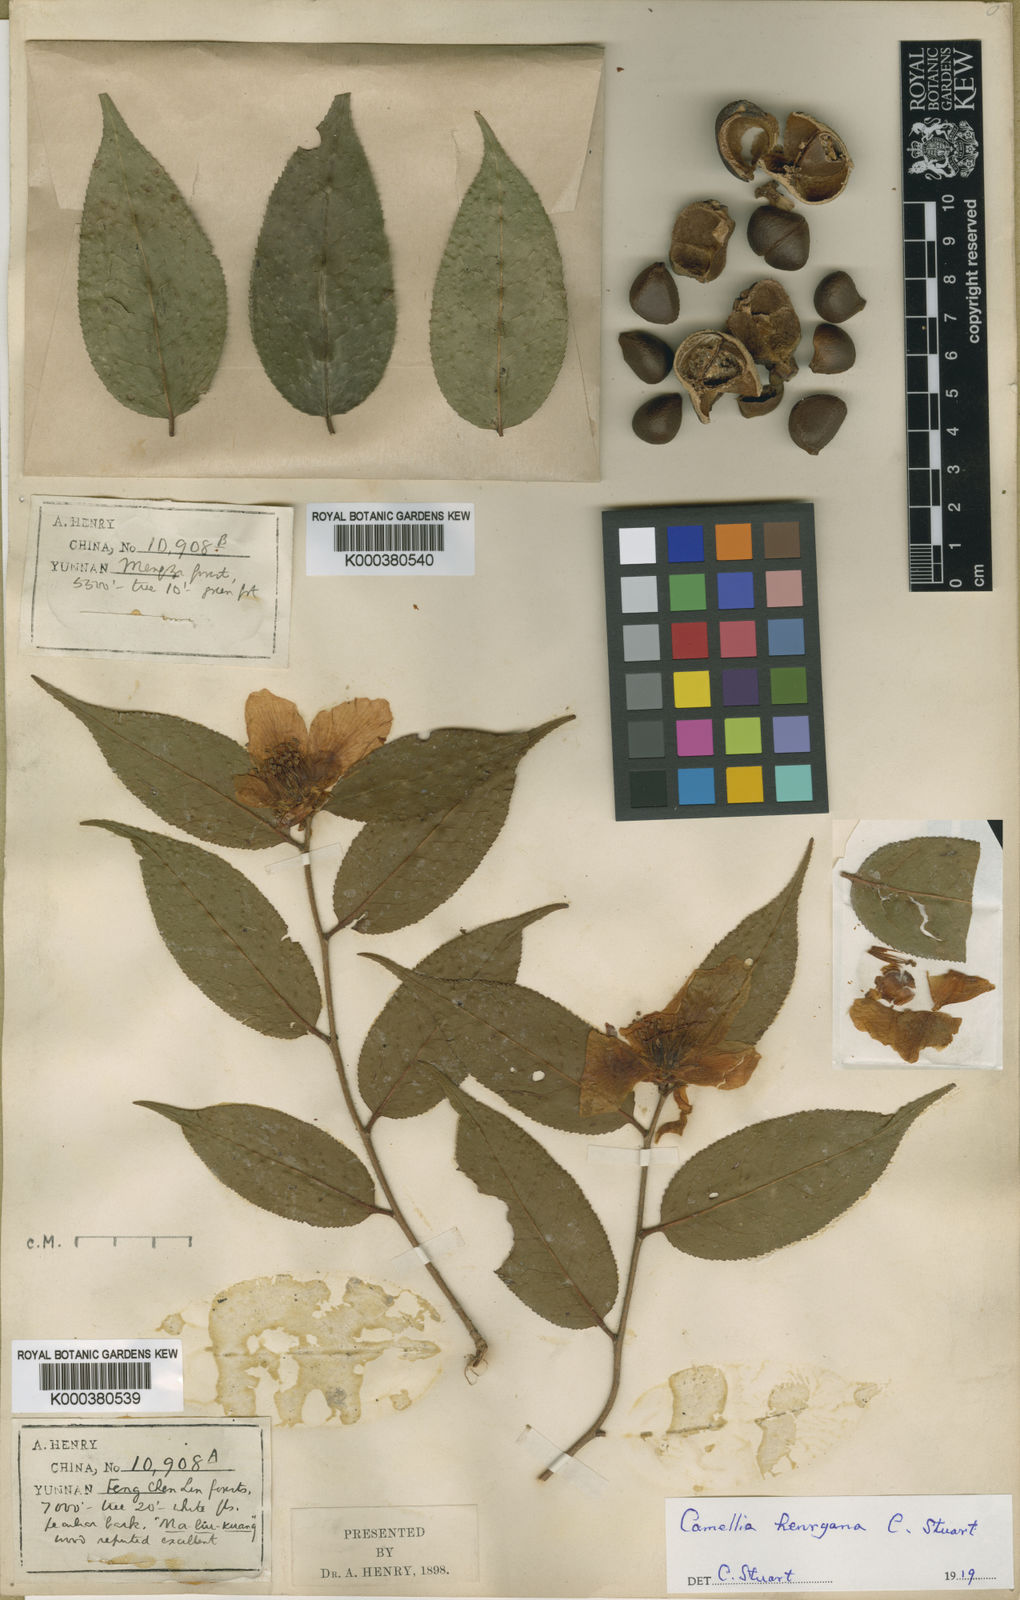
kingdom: Plantae
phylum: Tracheophyta
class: Magnoliopsida
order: Ericales
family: Theaceae
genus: Camellia
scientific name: Camellia yunnanensis
